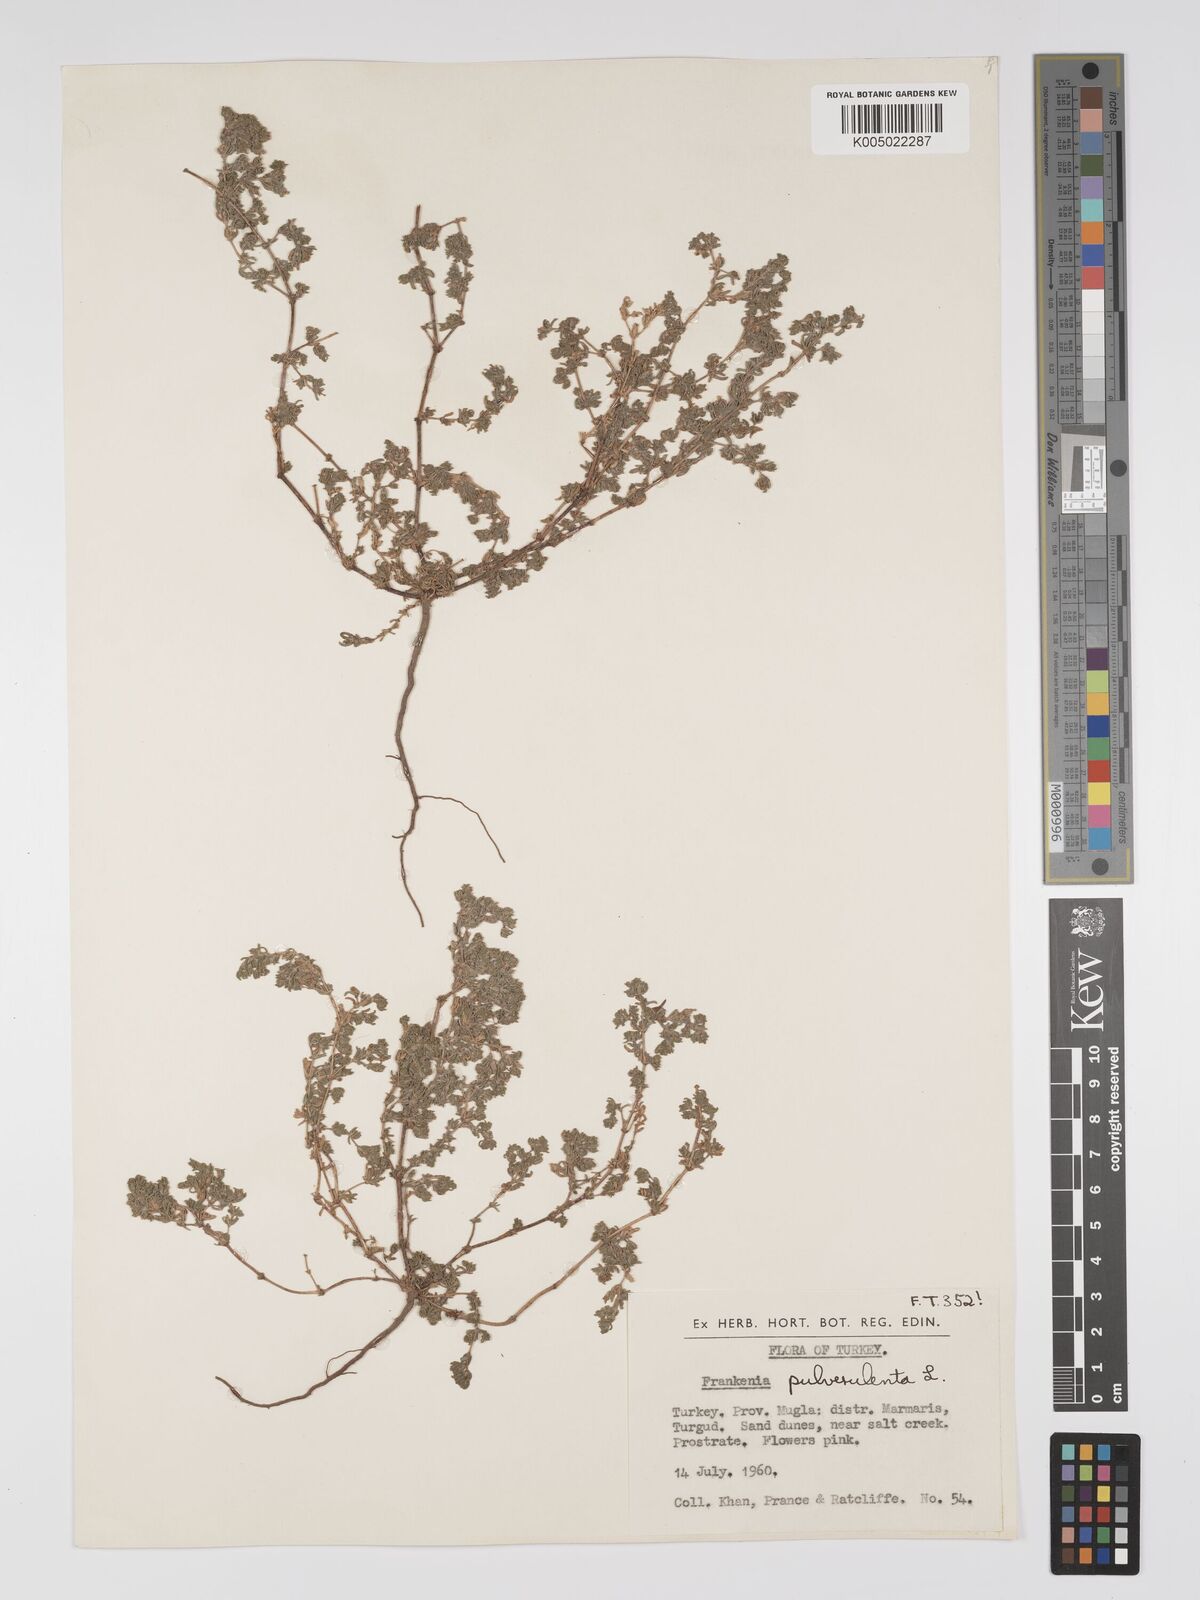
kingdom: Plantae
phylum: Tracheophyta
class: Magnoliopsida
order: Caryophyllales
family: Frankeniaceae
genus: Frankenia
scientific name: Frankenia pulverulenta
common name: European seaheath
